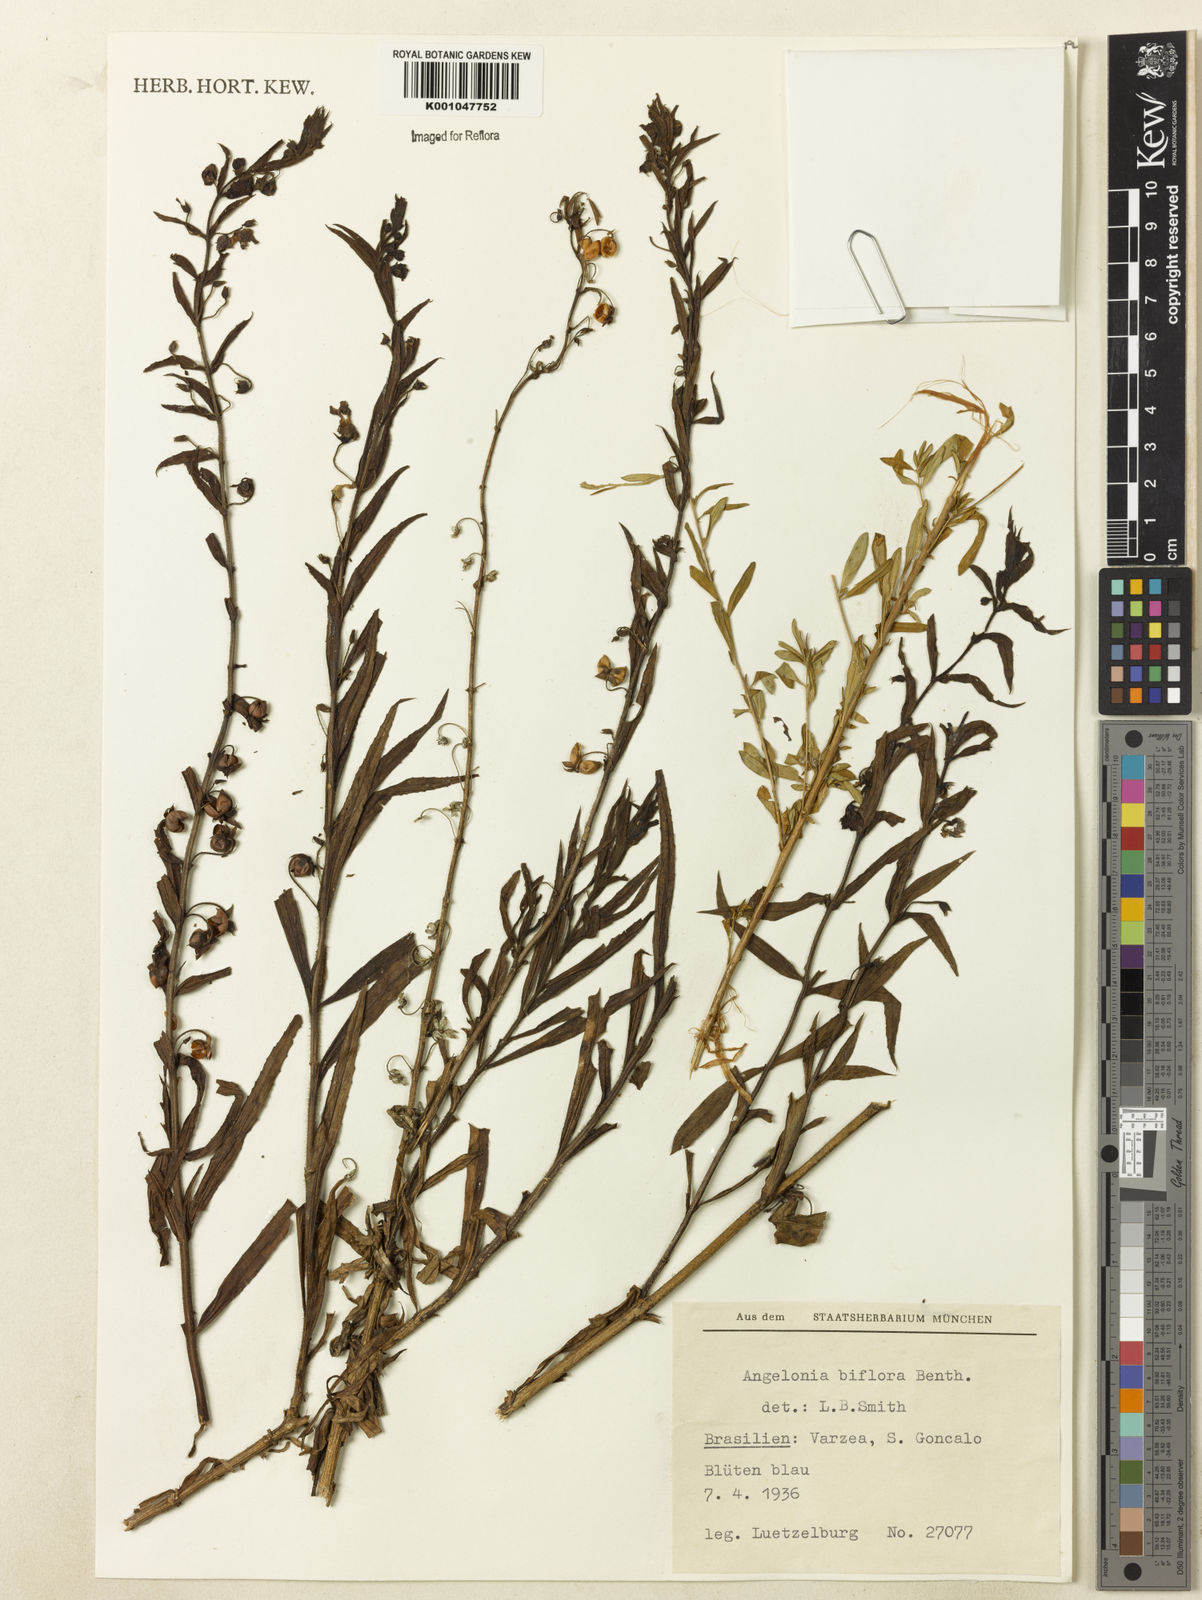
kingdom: Plantae
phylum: Tracheophyta
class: Magnoliopsida
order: Lamiales
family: Plantaginaceae
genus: Angelonia
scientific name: Angelonia biflora
